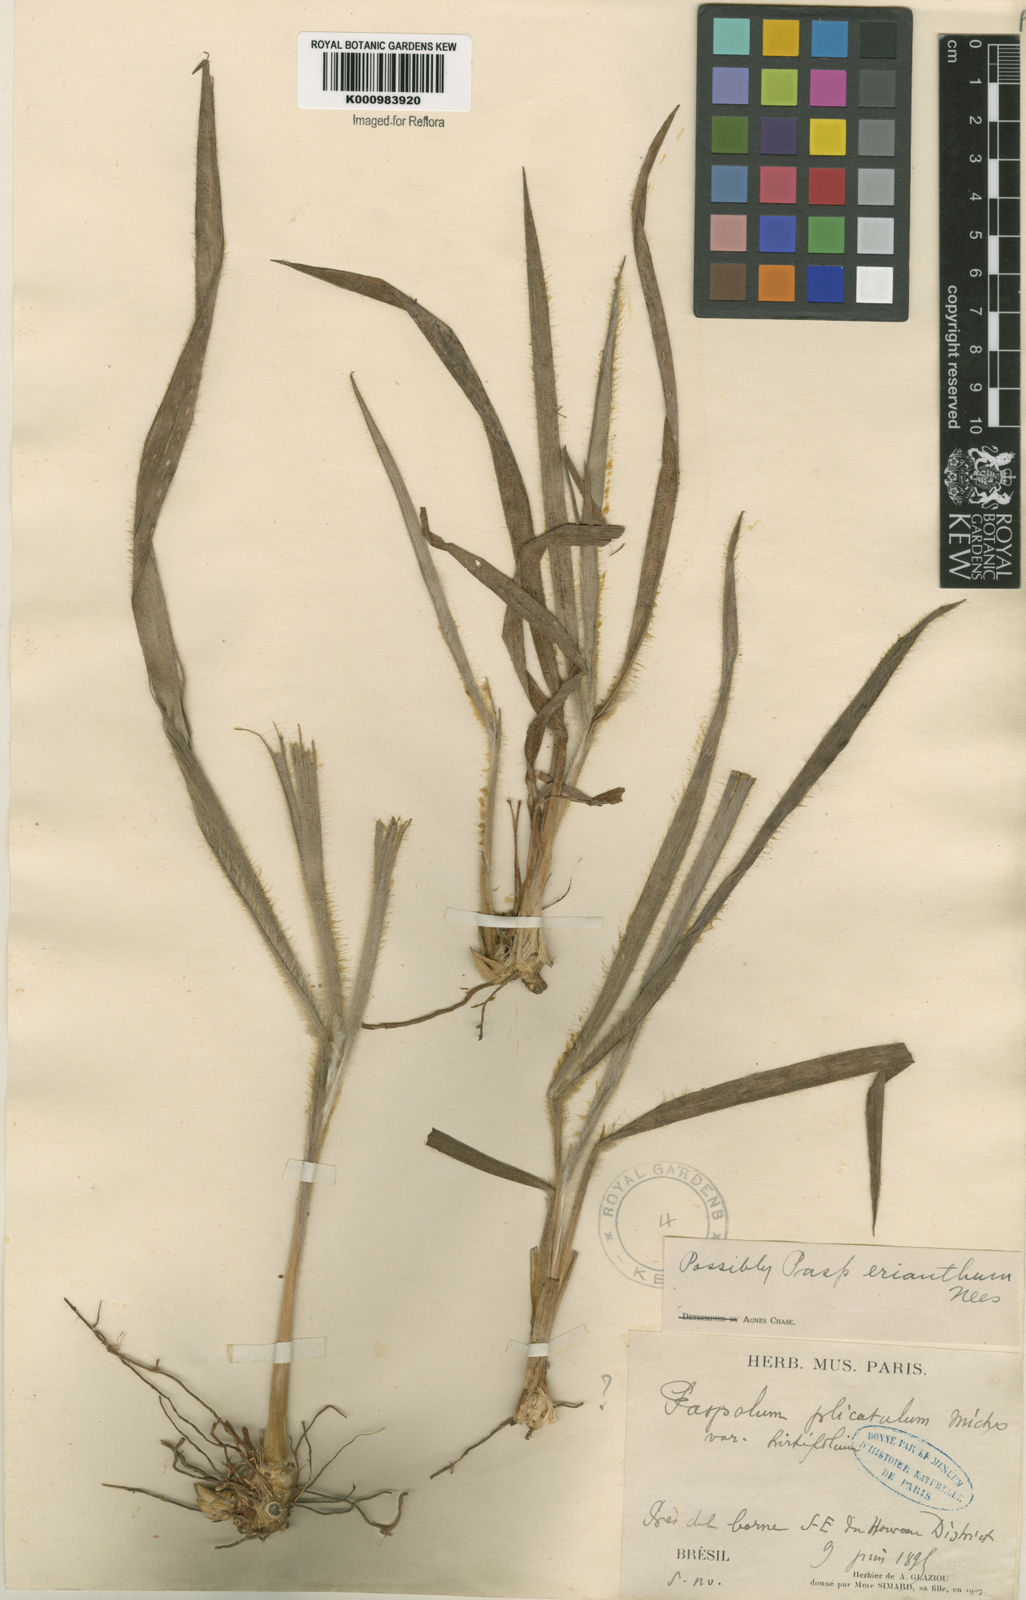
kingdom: Plantae
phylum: Tracheophyta
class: Liliopsida
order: Poales
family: Poaceae
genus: Paspalum
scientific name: Paspalum erianthum
